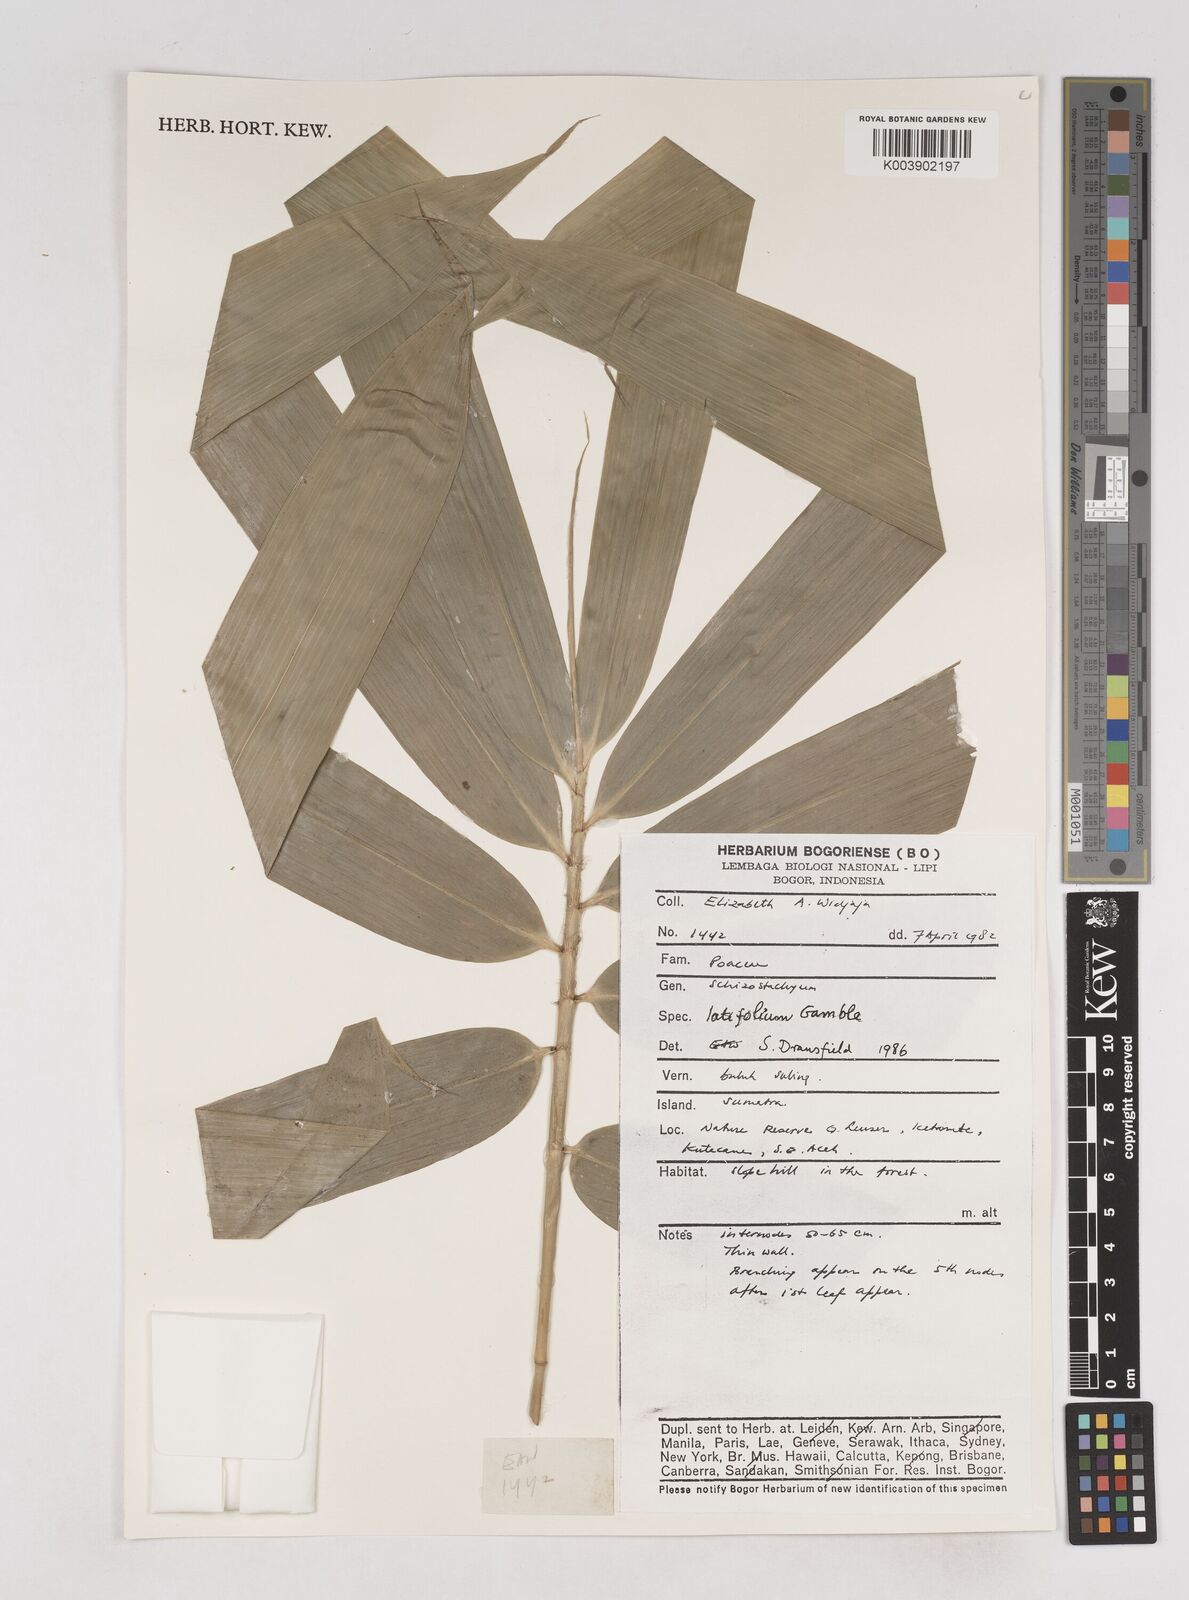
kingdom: Plantae
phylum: Tracheophyta
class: Liliopsida
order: Poales
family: Poaceae
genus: Schizostachyum
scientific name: Schizostachyum latifolium
